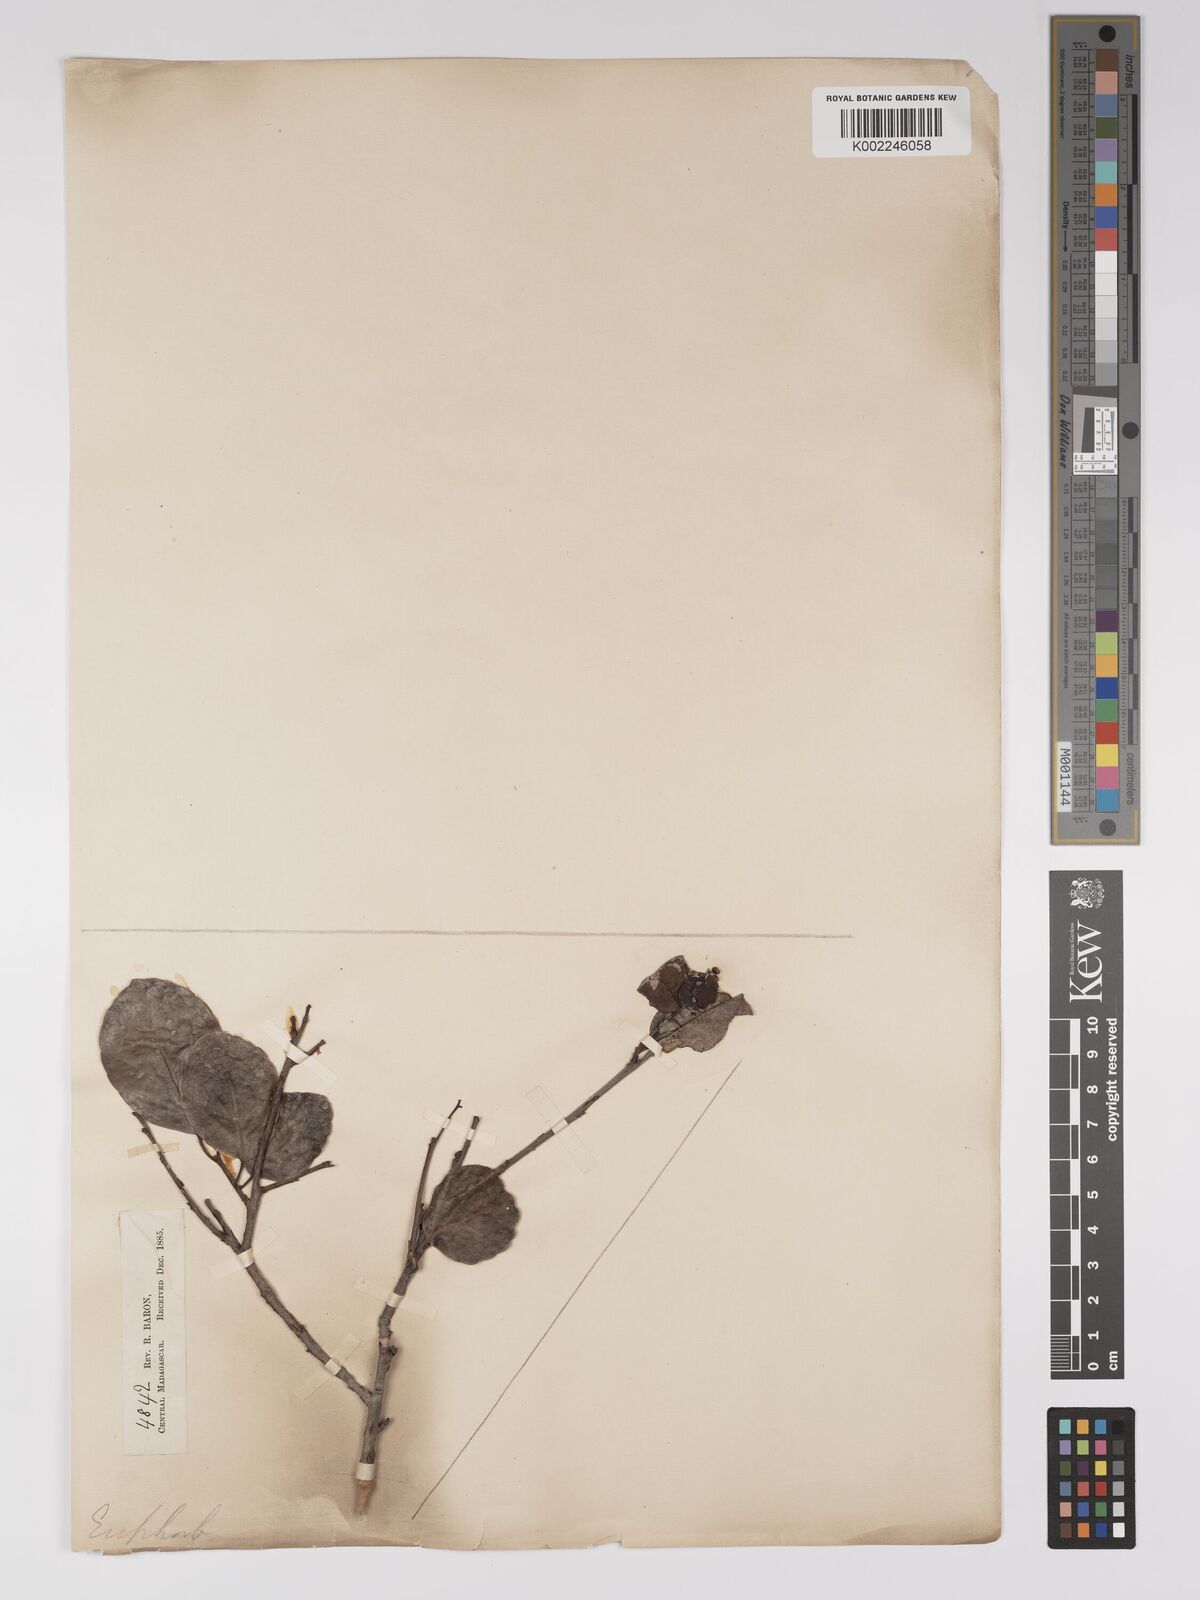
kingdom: Plantae
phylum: Tracheophyta
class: Magnoliopsida
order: Malpighiales
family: Euphorbiaceae
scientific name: Euphorbiaceae
